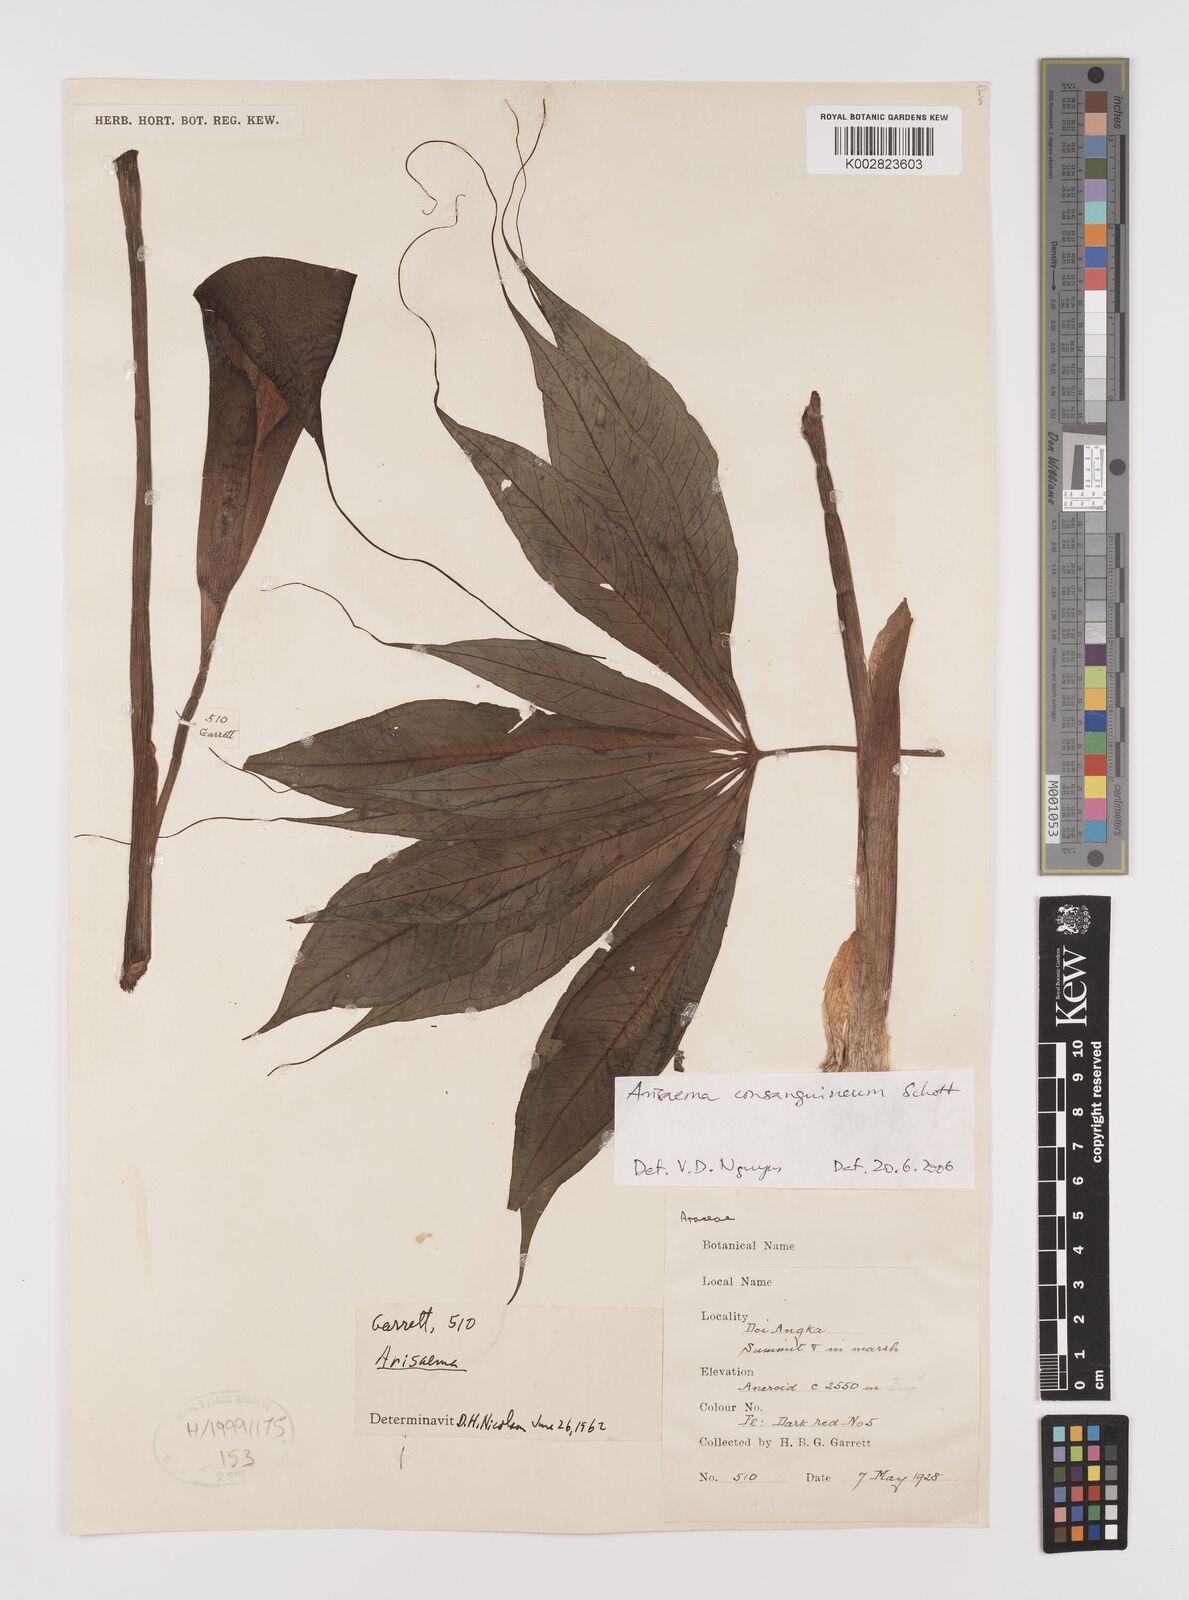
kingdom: Plantae
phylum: Tracheophyta
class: Liliopsida
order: Alismatales
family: Araceae
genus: Arisaema
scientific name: Arisaema consanguineum
